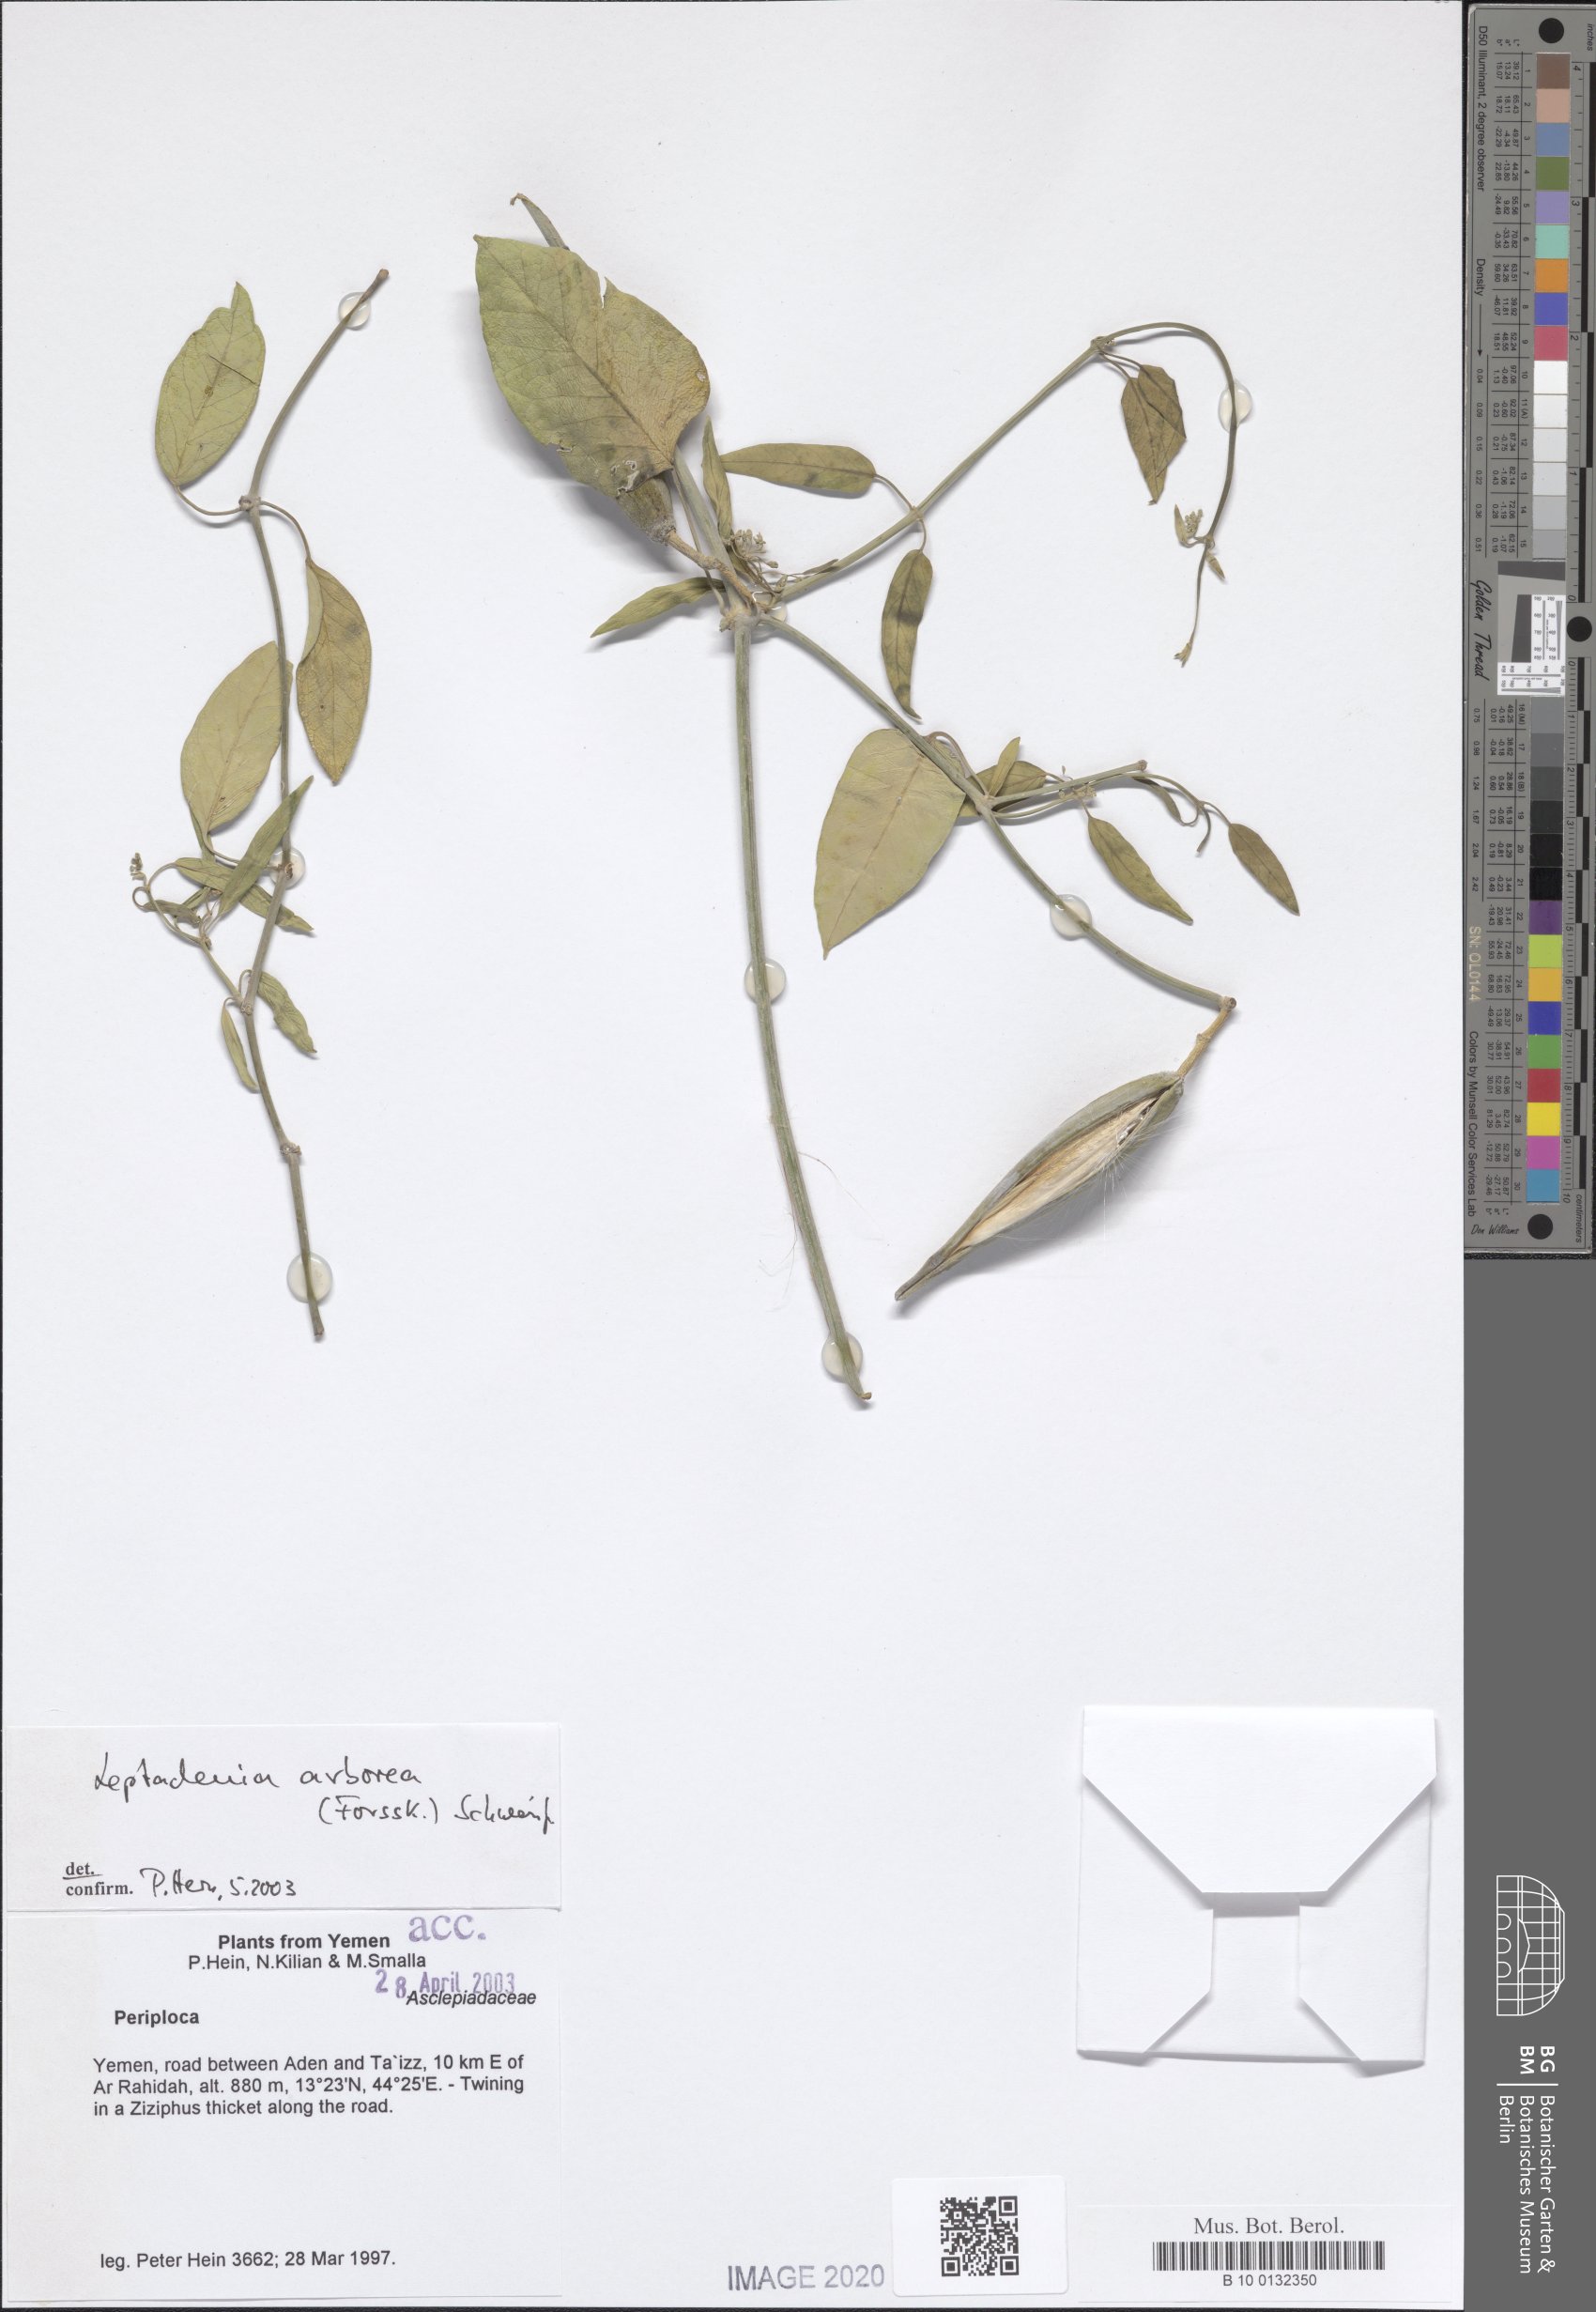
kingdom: Plantae
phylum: Tracheophyta
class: Magnoliopsida
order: Gentianales
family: Apocynaceae
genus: Leptadenia
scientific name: Leptadenia arborea
